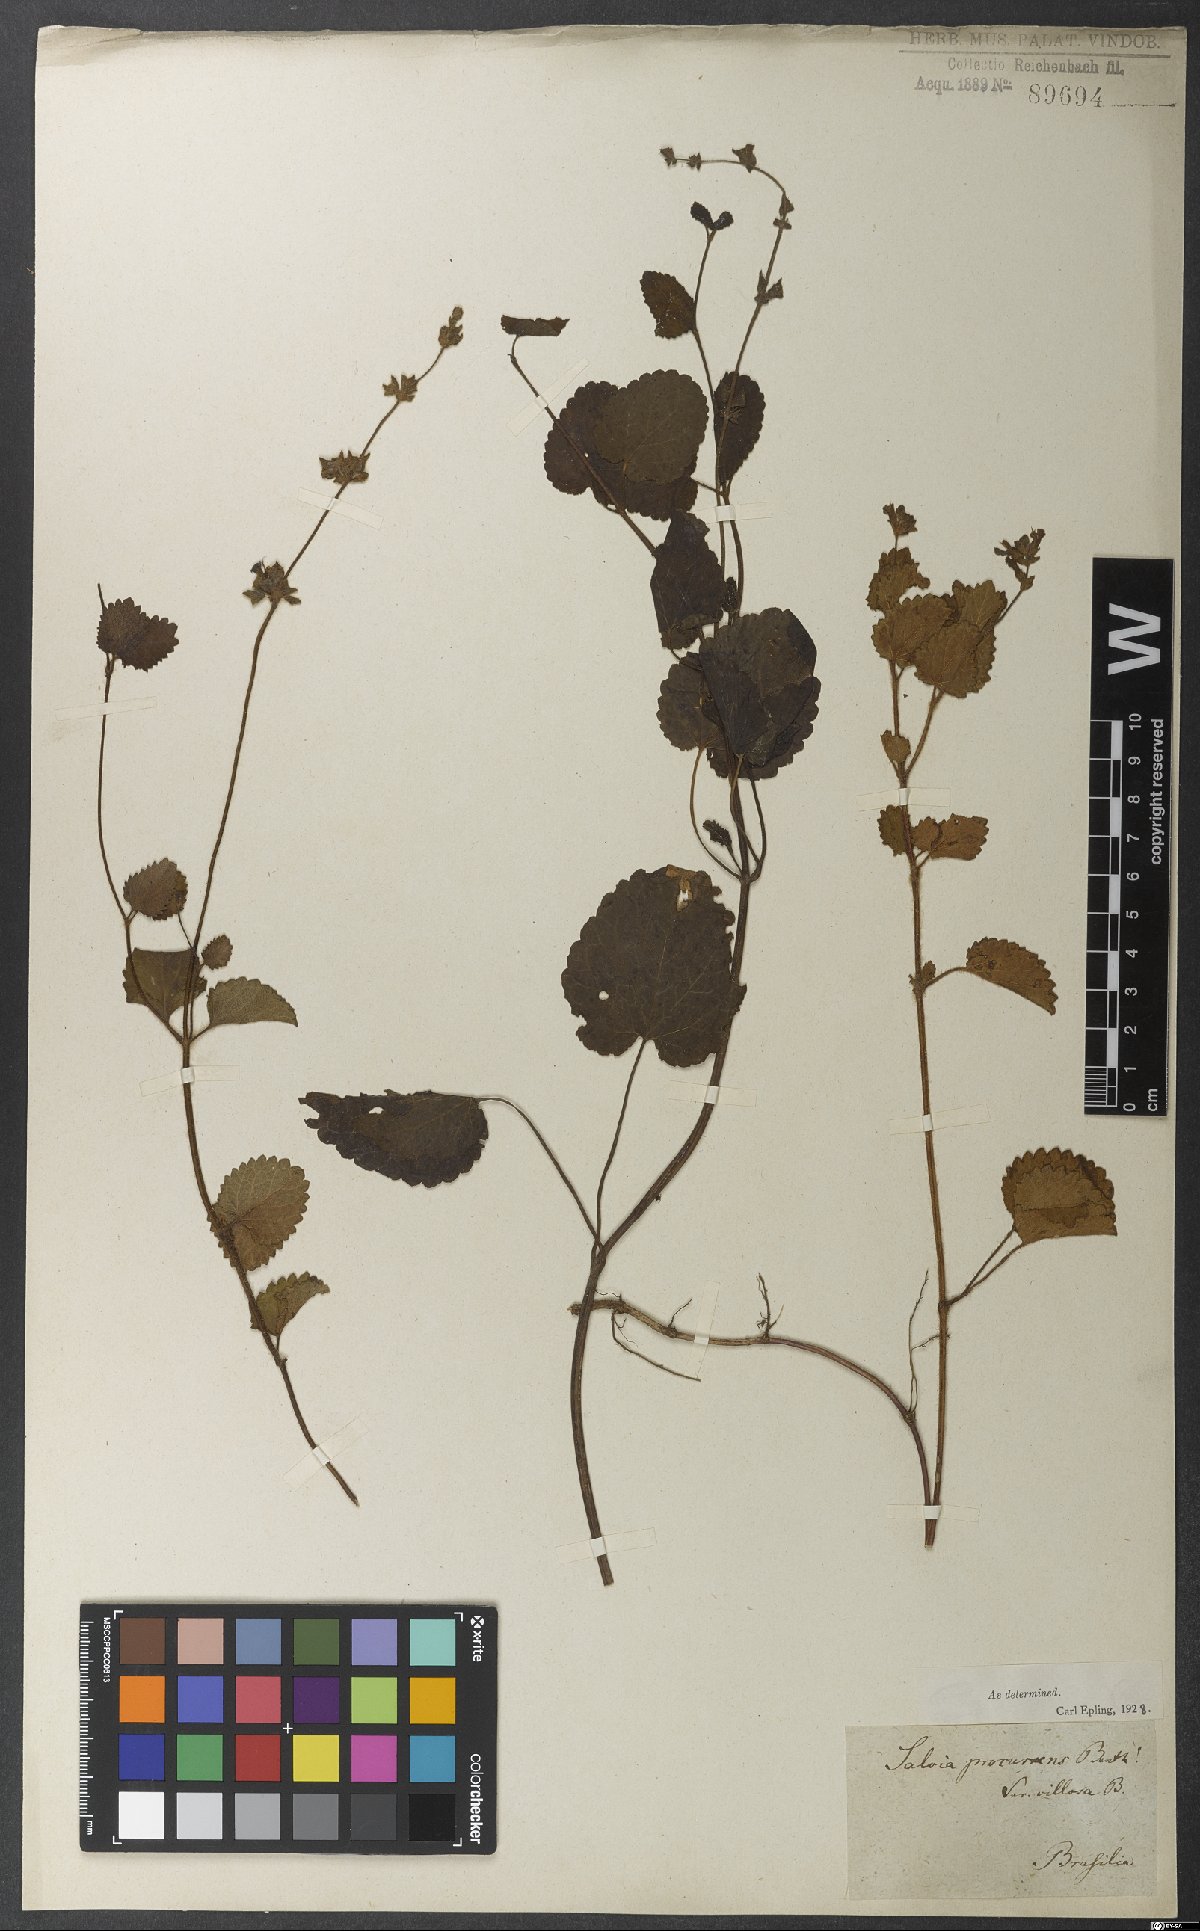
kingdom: Plantae
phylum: Tracheophyta
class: Magnoliopsida
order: Lamiales
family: Lamiaceae
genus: Salvia
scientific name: Salvia procurrens
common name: Blue creeper
